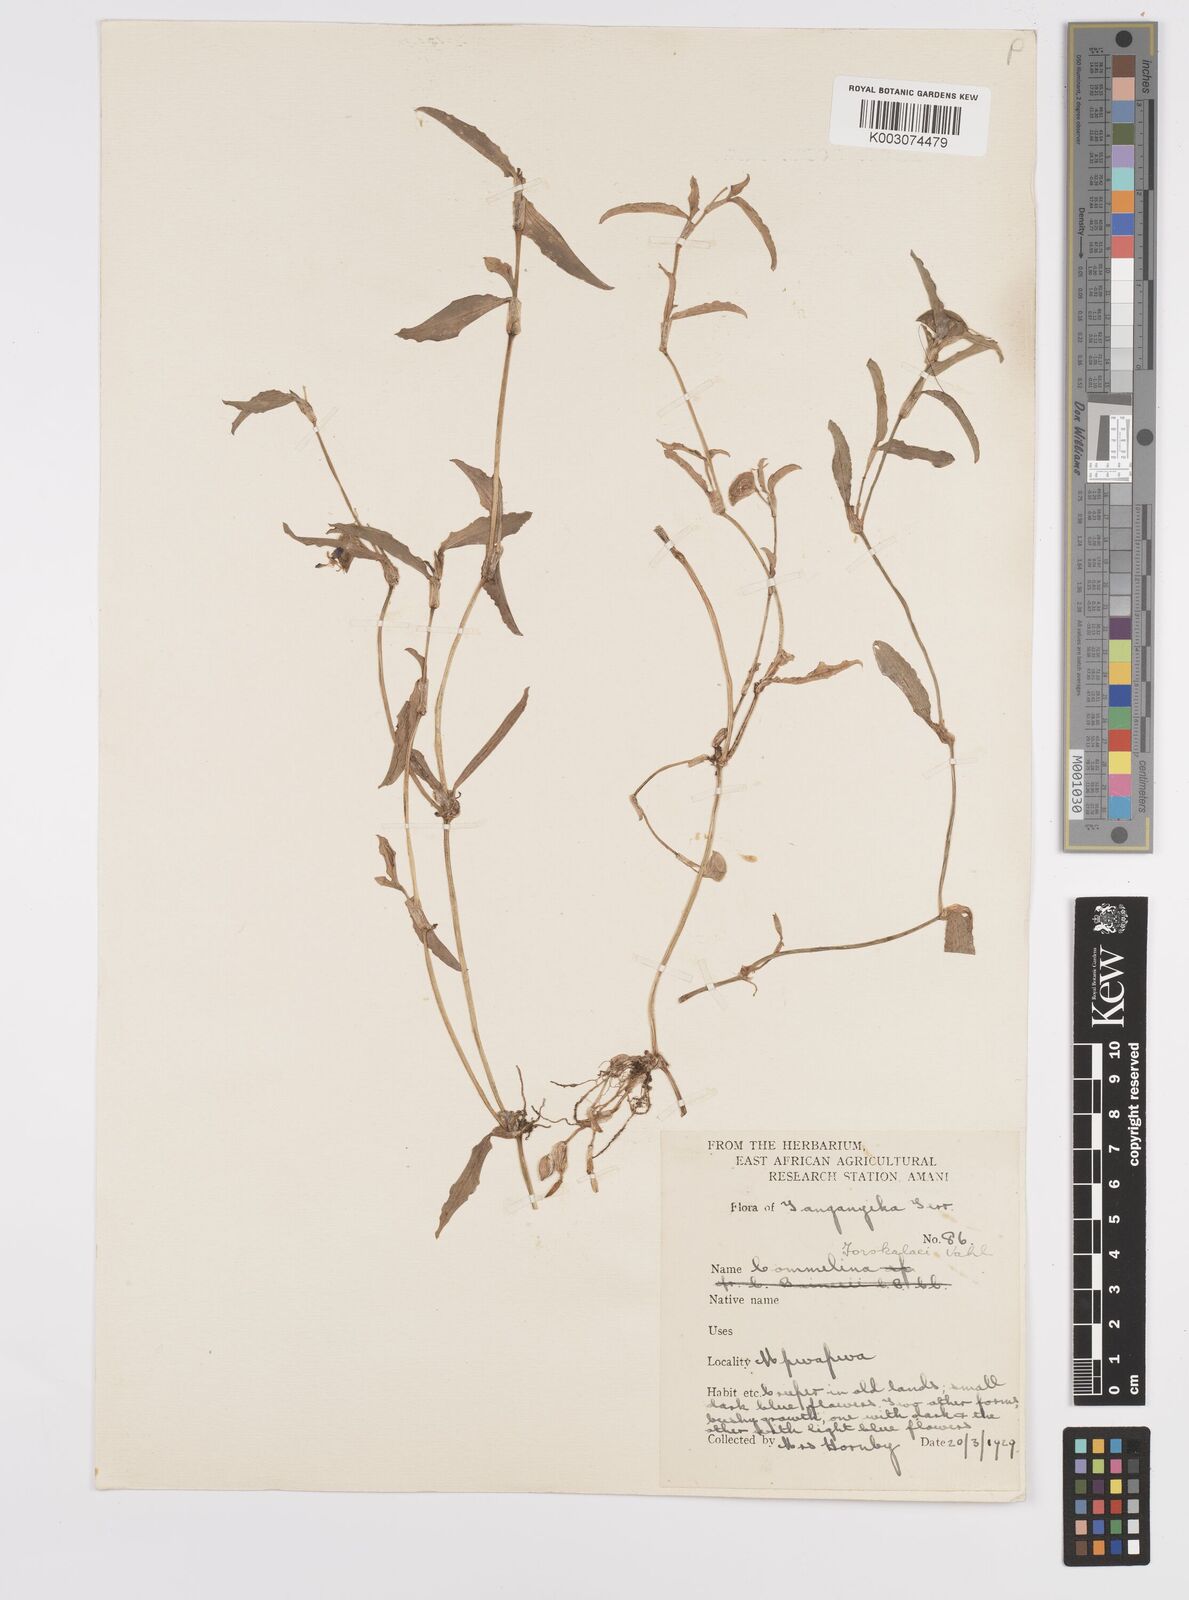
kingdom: Plantae
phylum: Tracheophyta
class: Liliopsida
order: Commelinales
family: Commelinaceae
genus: Commelina
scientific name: Commelina
